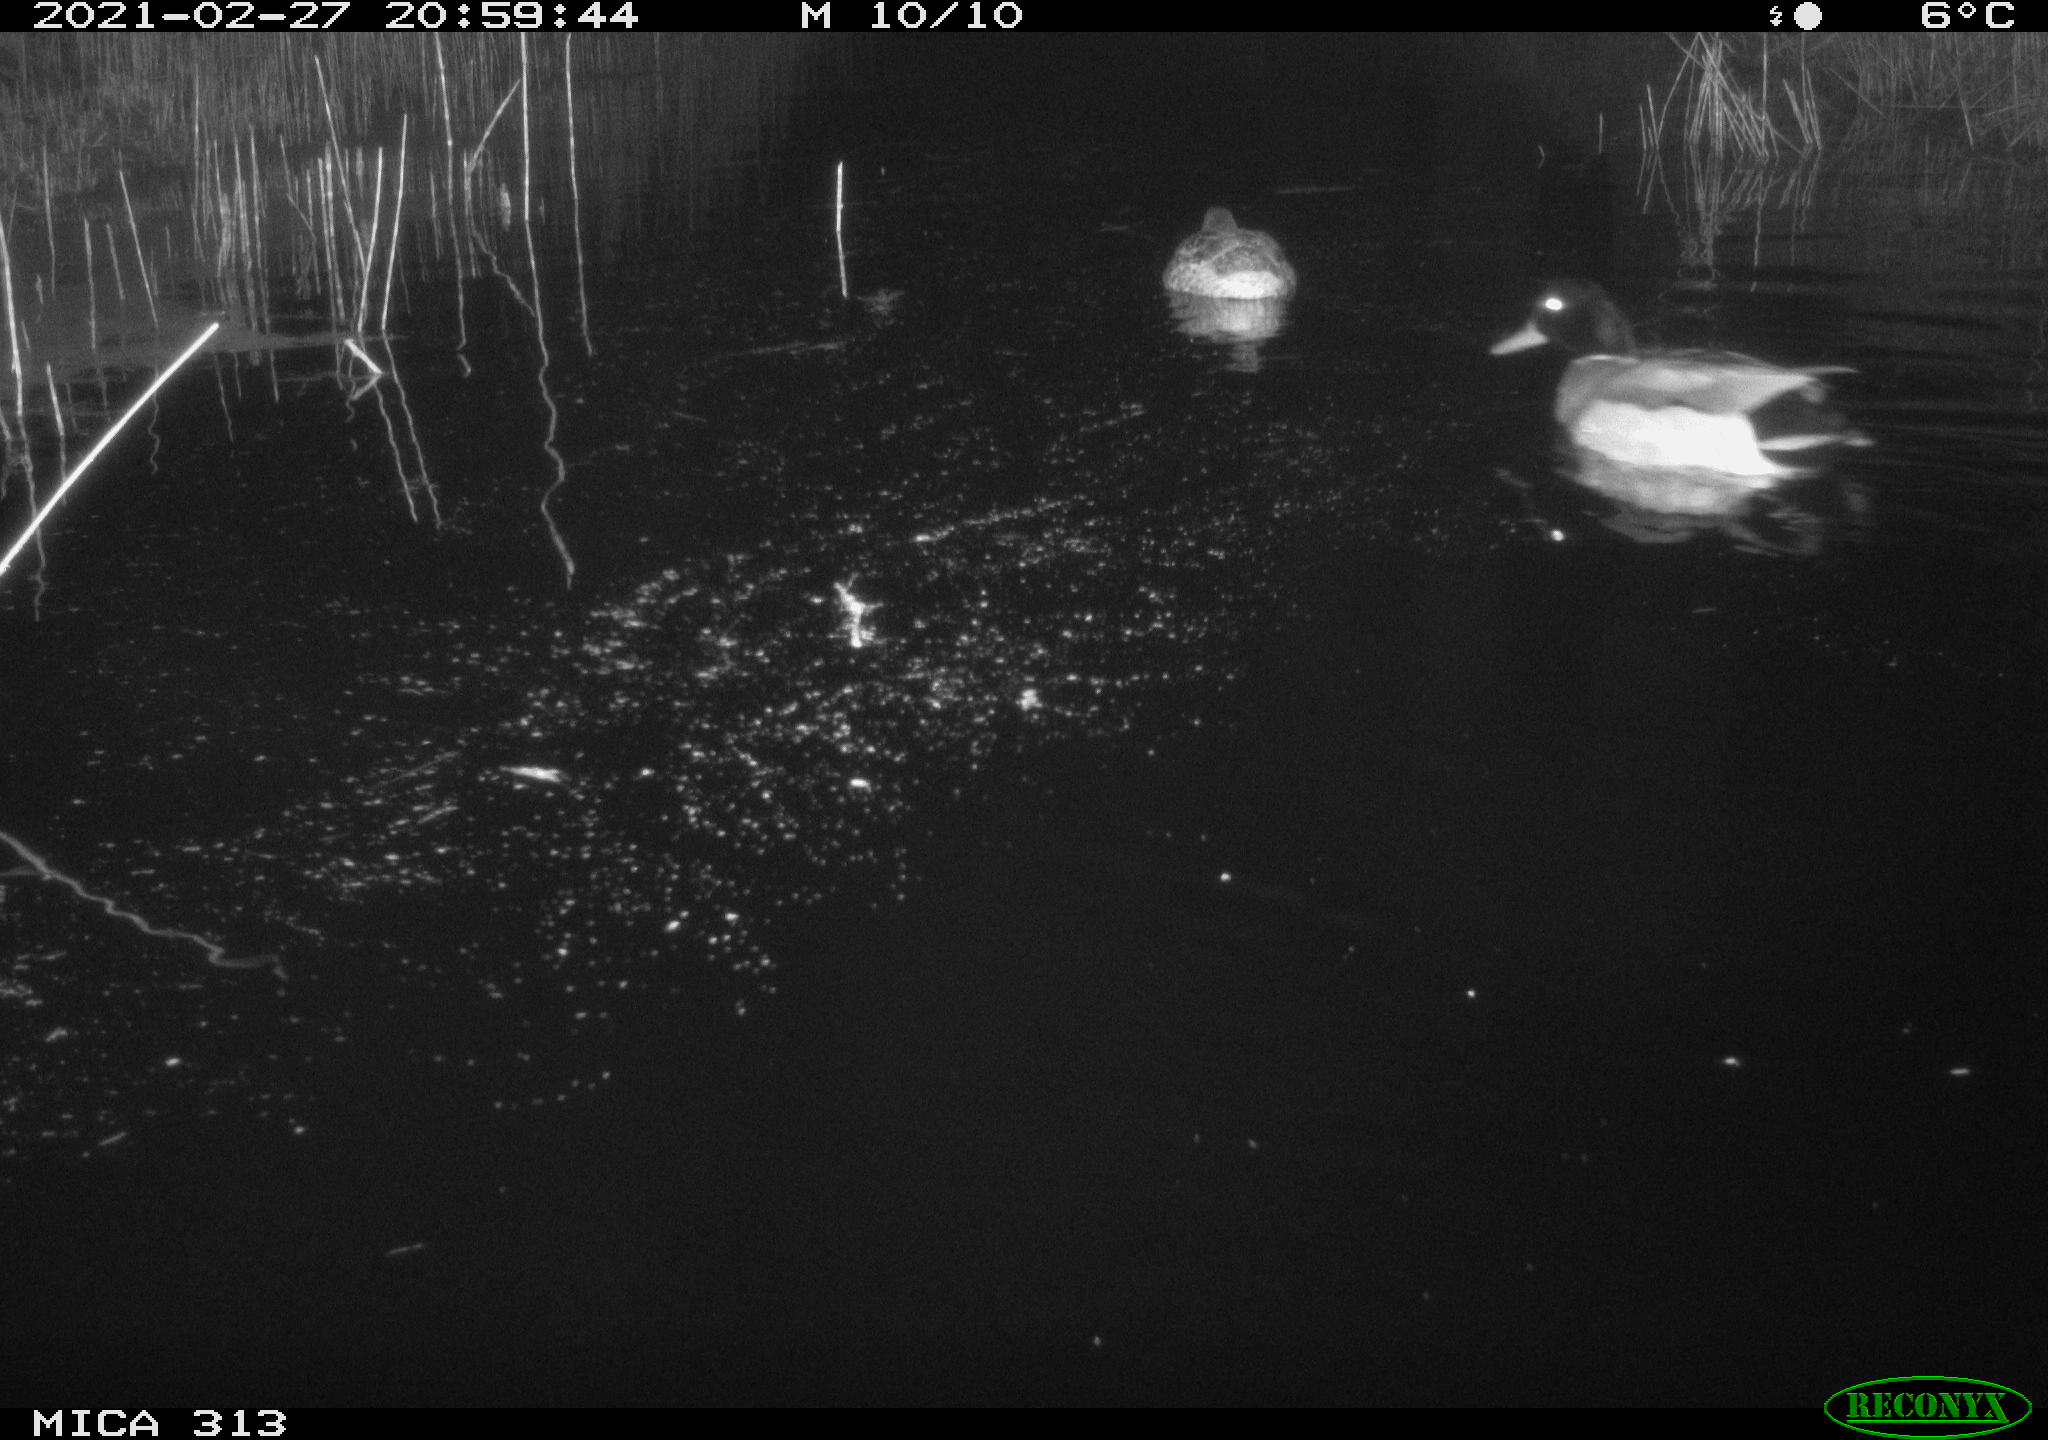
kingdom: Animalia
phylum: Chordata
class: Aves
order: Gruiformes
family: Rallidae
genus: Gallinula
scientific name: Gallinula chloropus
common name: Common moorhen
